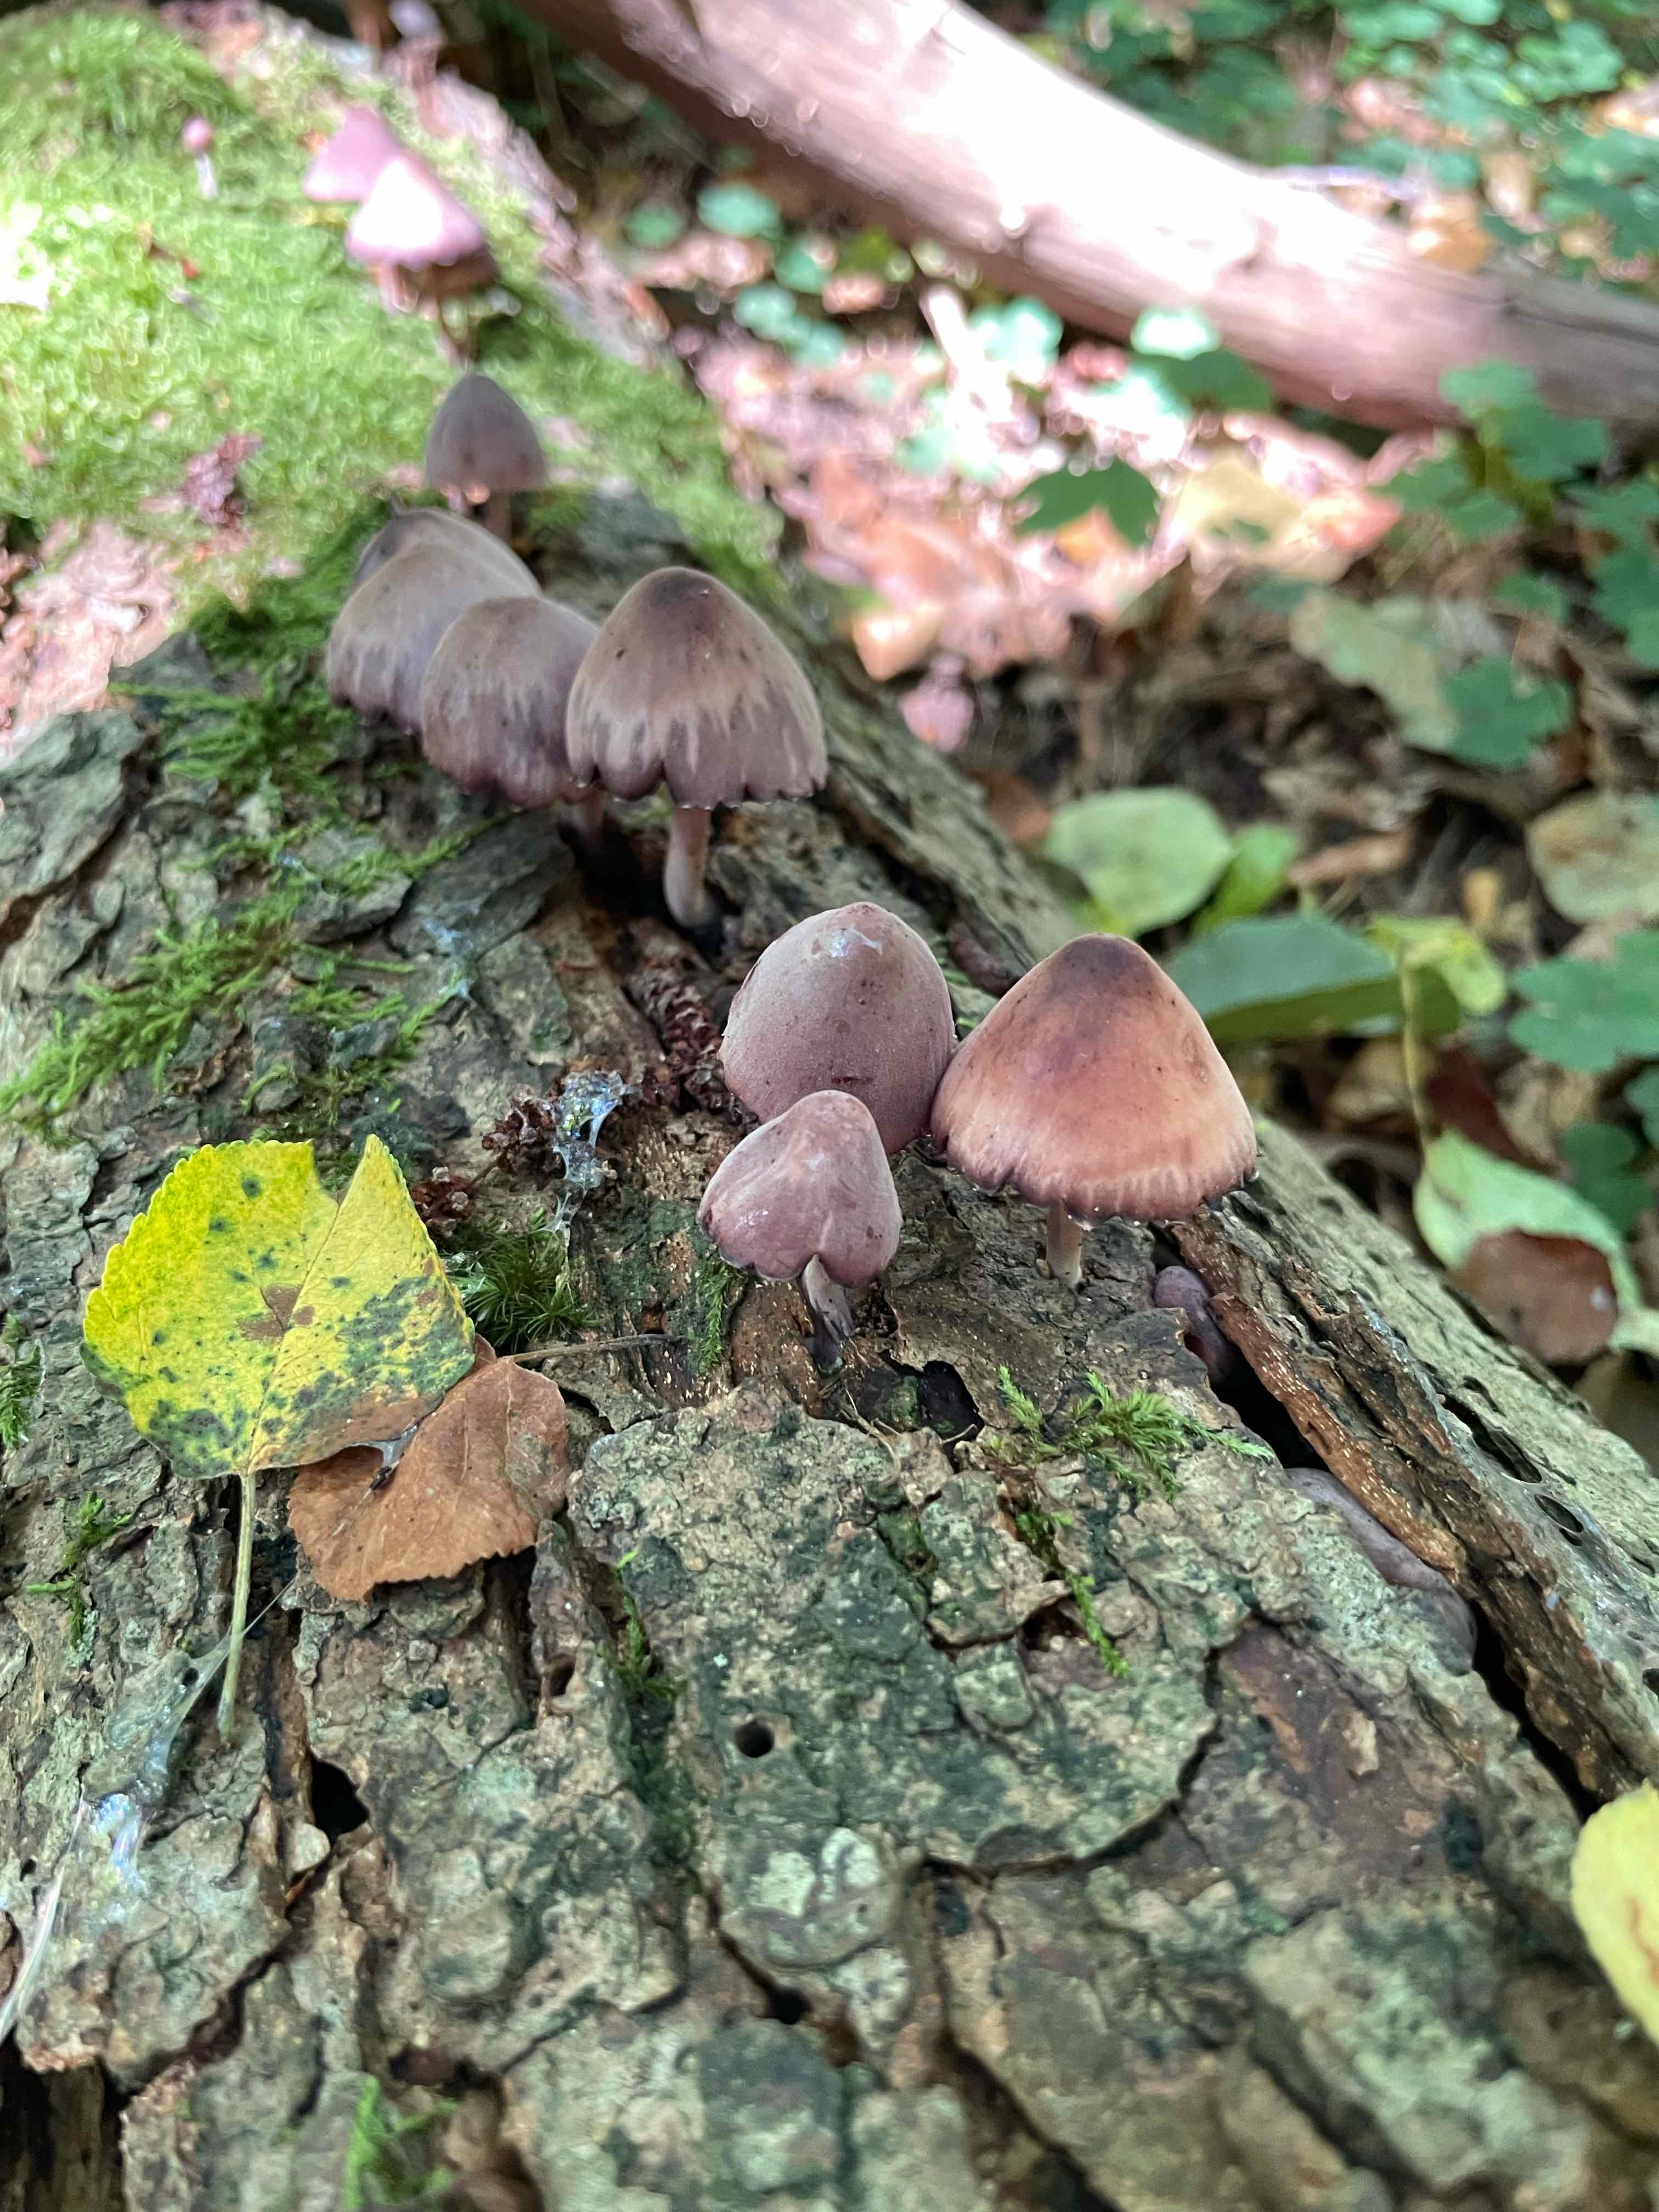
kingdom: Fungi
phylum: Basidiomycota
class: Agaricomycetes
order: Agaricales
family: Mycenaceae
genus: Mycena
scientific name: Mycena haematopus
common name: blødende huesvamp
